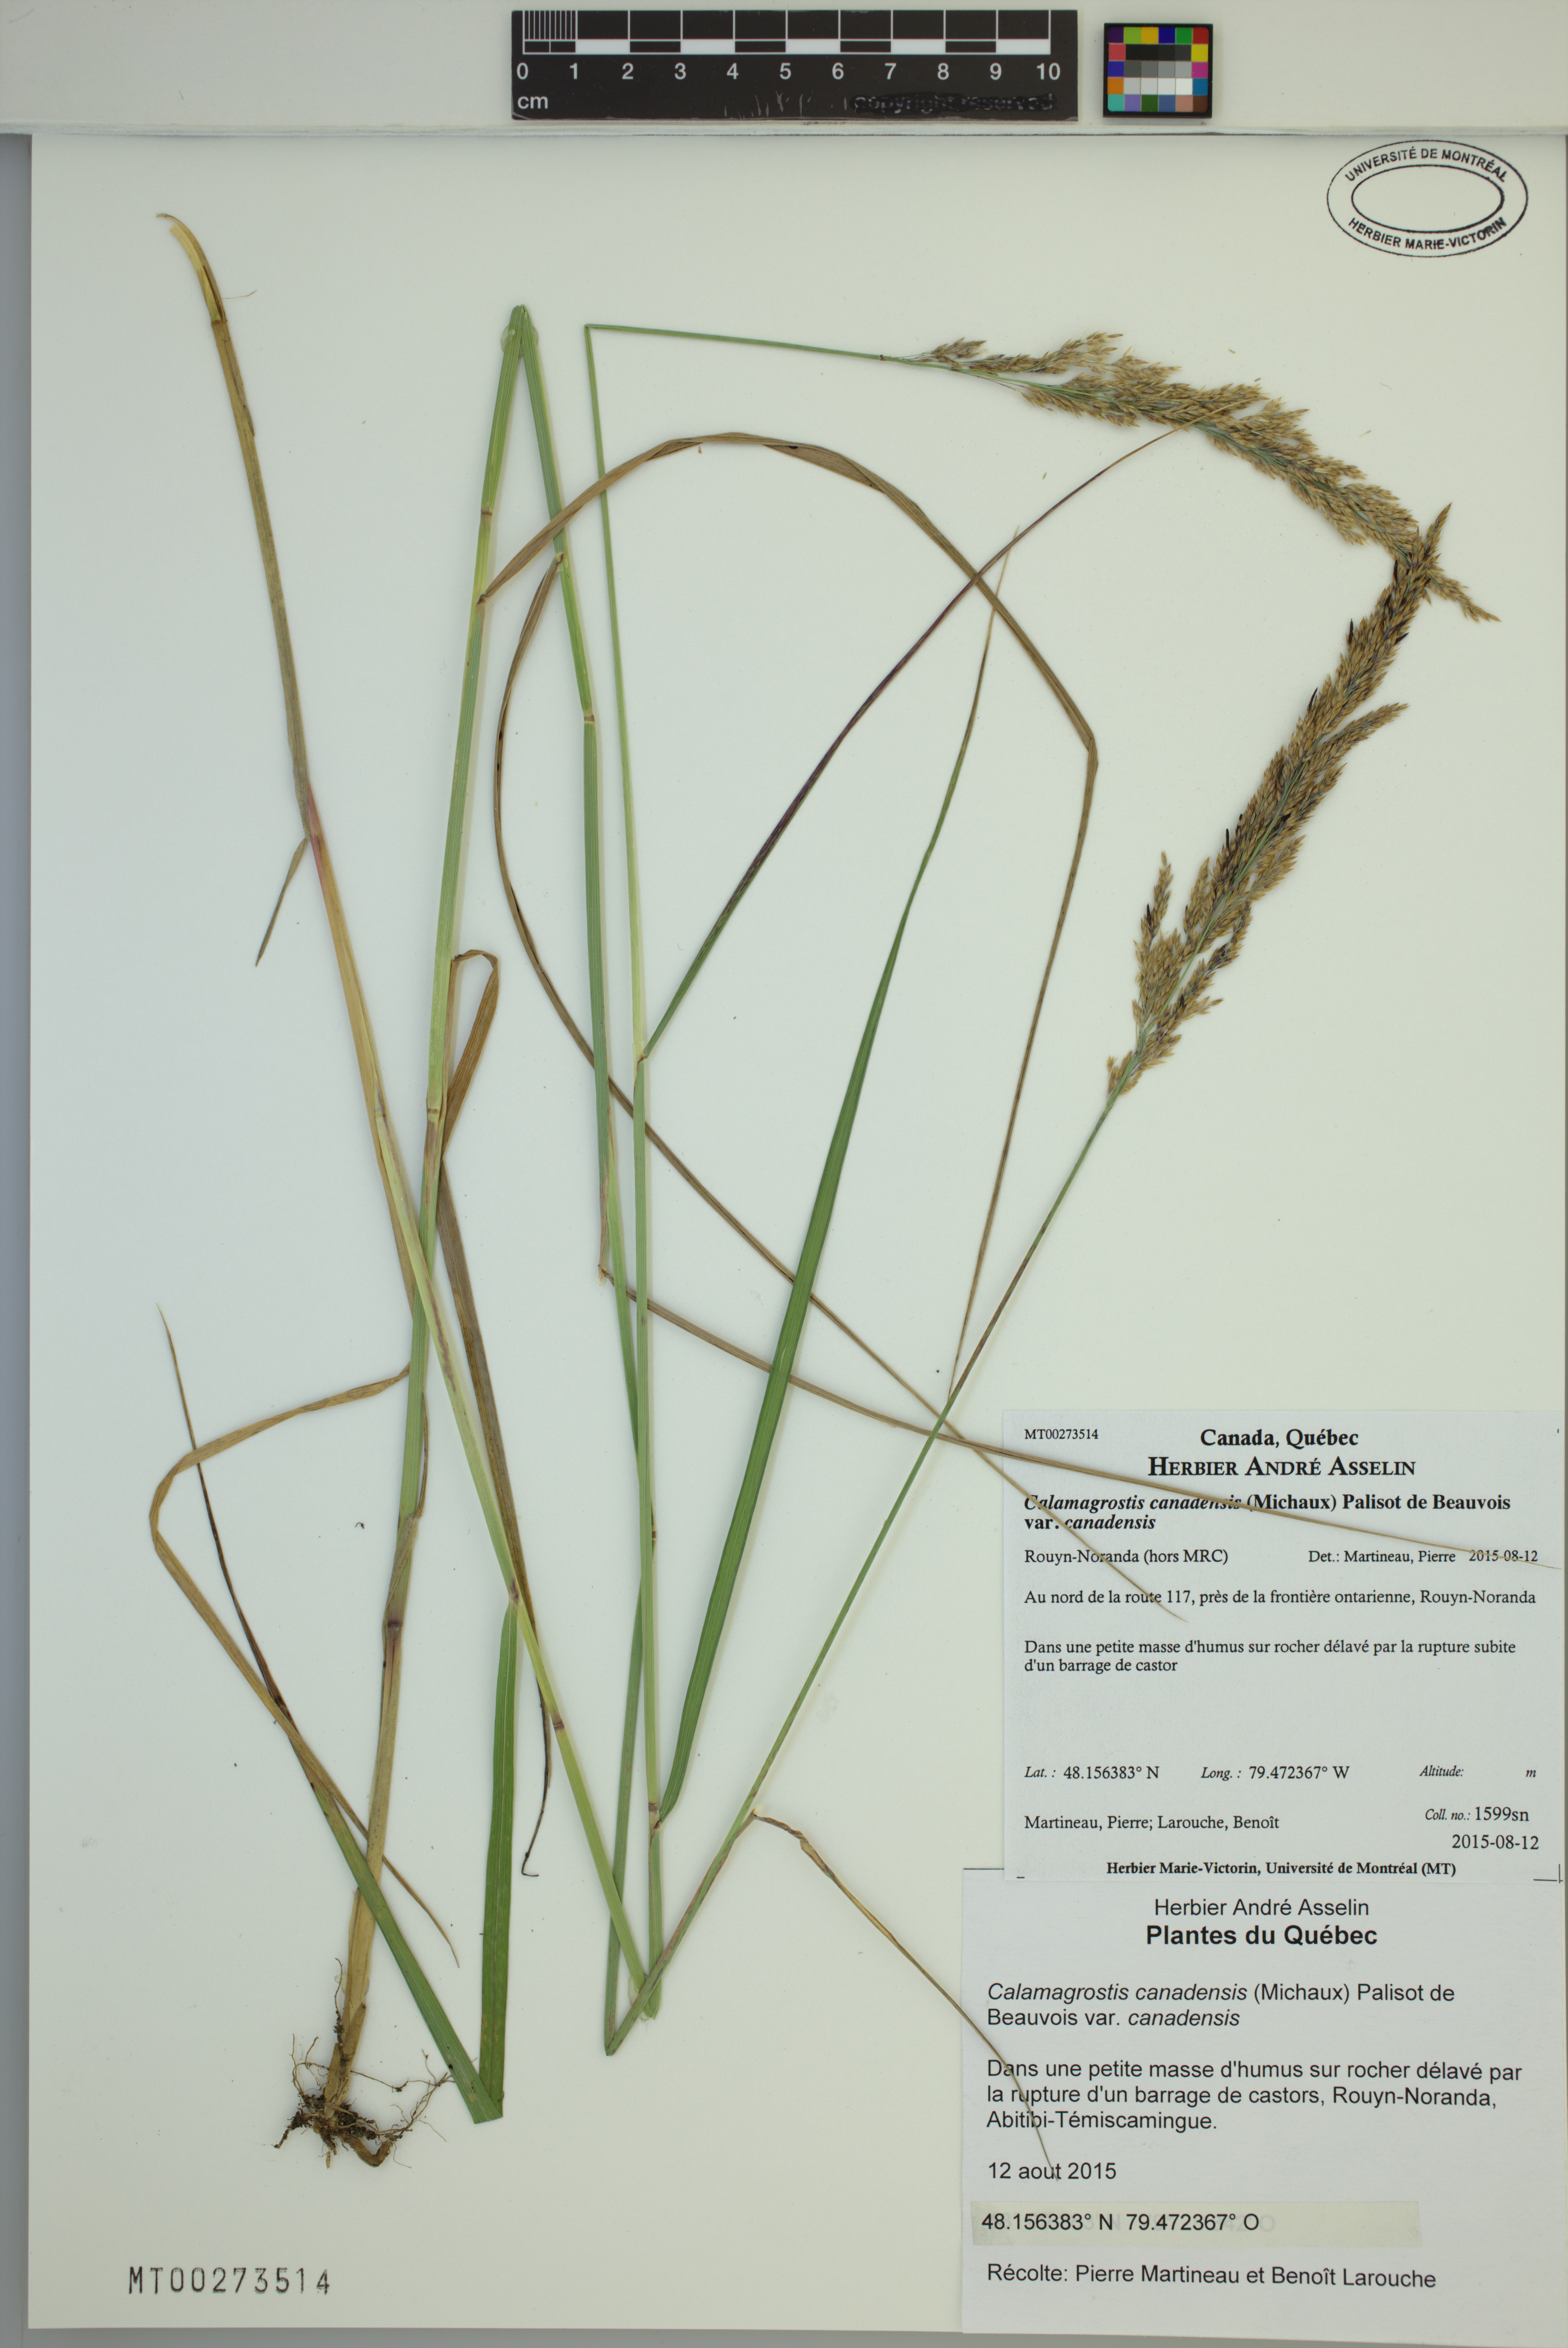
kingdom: Plantae
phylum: Tracheophyta
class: Liliopsida
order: Poales
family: Poaceae
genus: Calamagrostis
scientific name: Calamagrostis canadensis
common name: Canada bluejoint
